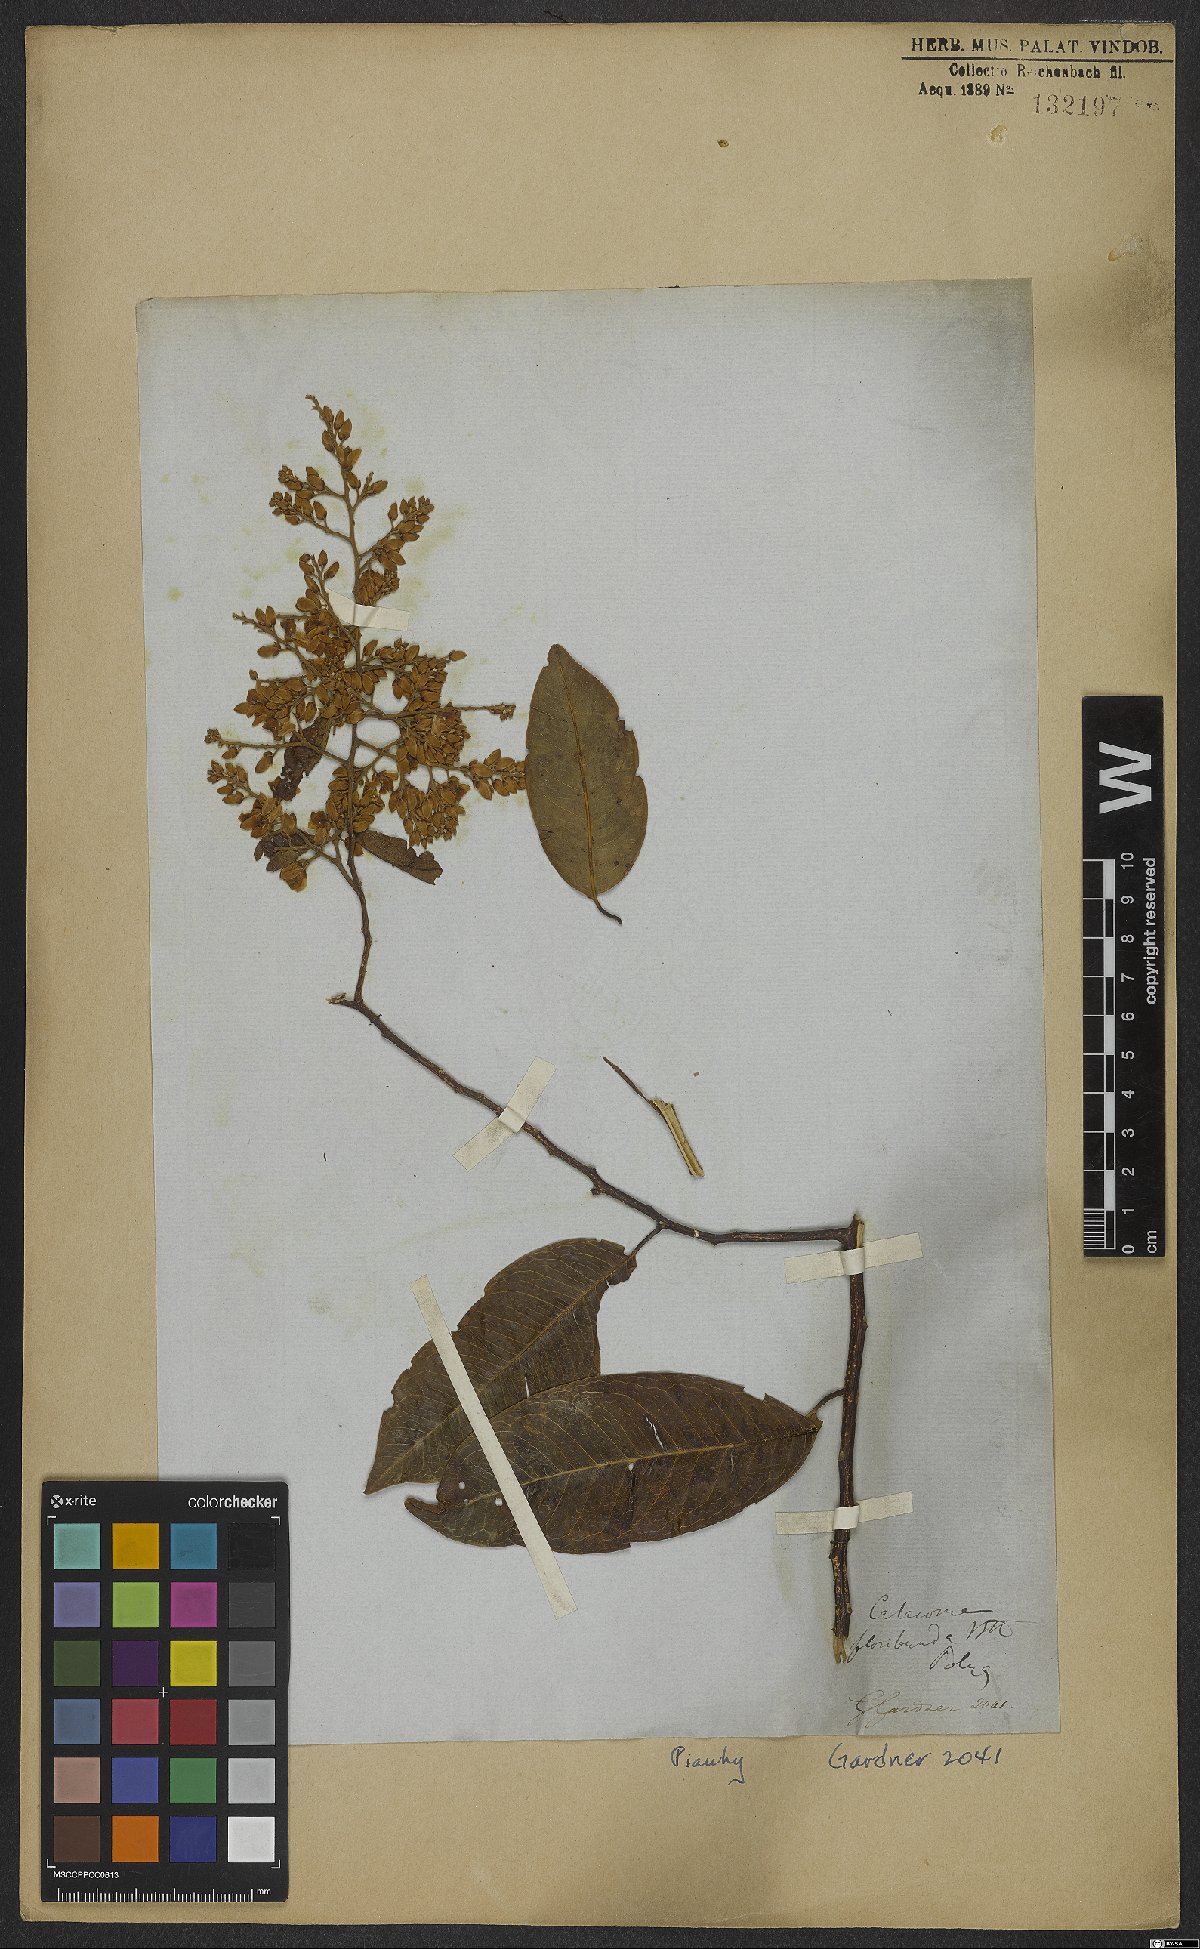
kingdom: Plantae
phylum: Tracheophyta
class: Magnoliopsida
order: Fabales
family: Polygalaceae
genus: Bredemeyera
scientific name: Bredemeyera floribunda
